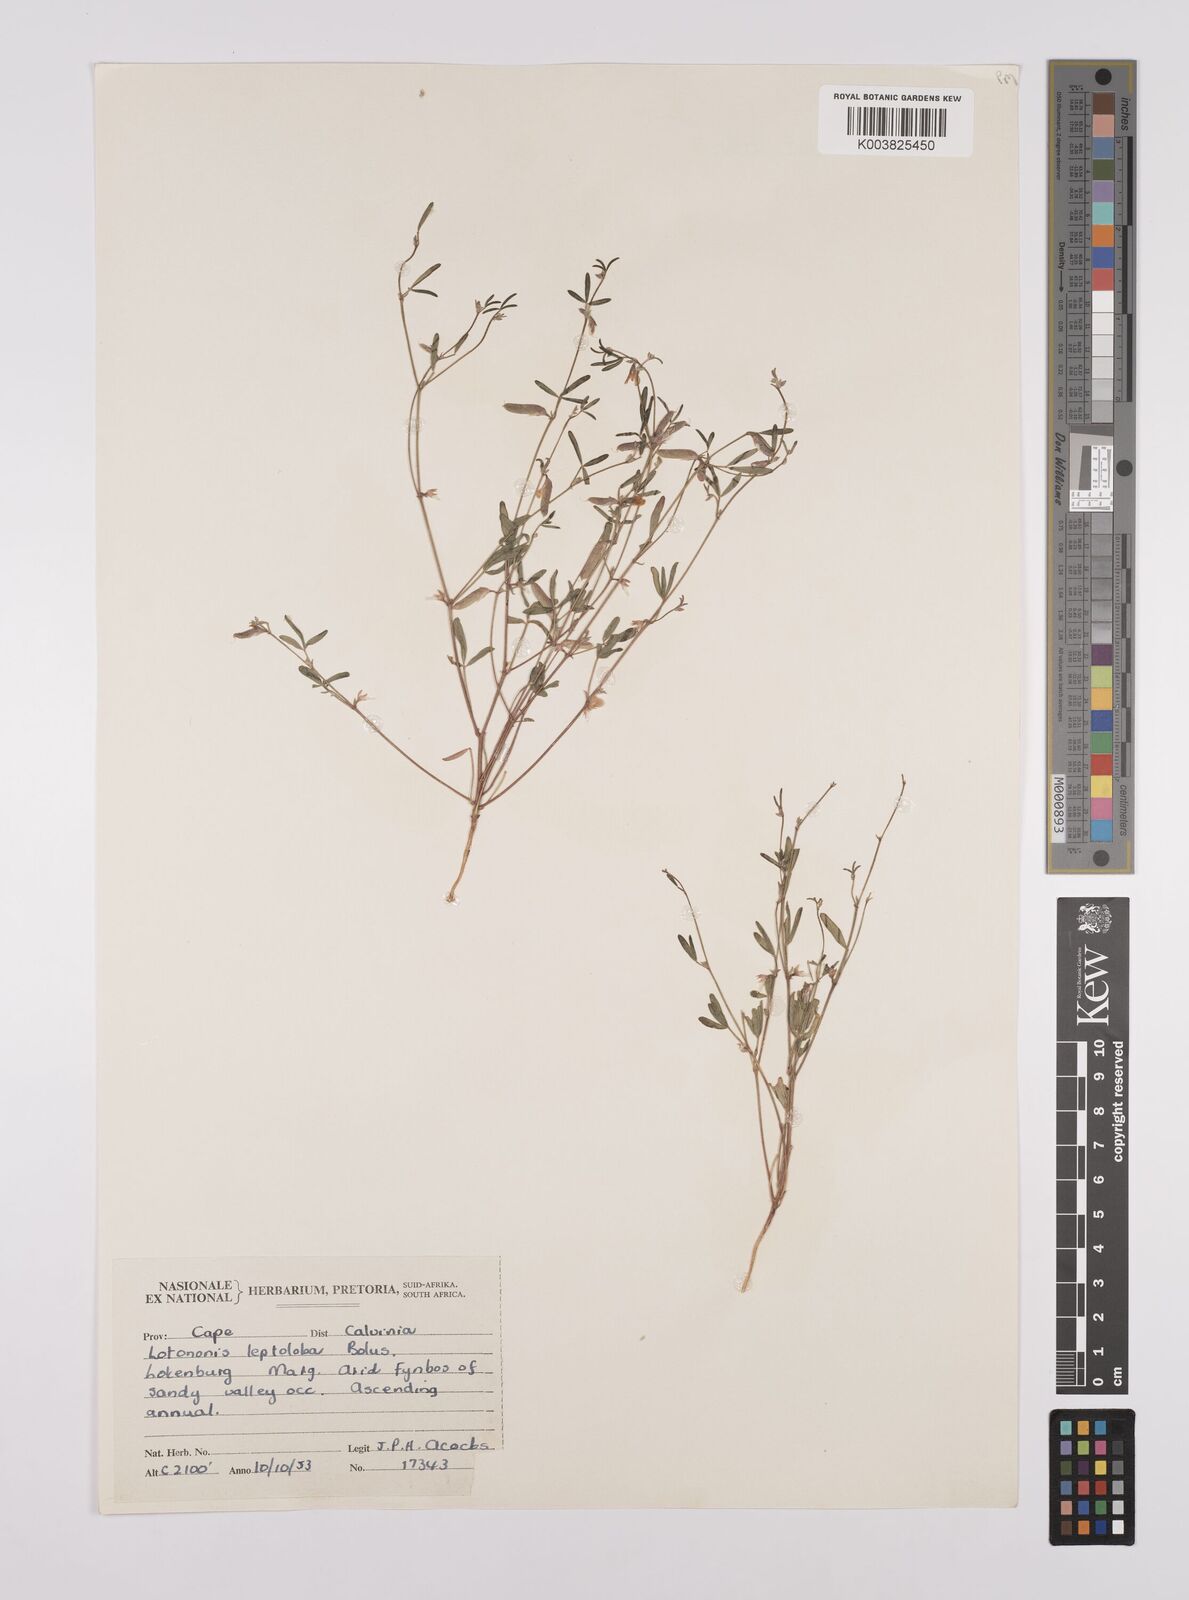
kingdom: Plantae
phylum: Tracheophyta
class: Magnoliopsida
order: Fabales
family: Fabaceae
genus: Lotononis
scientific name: Lotononis parviflora
